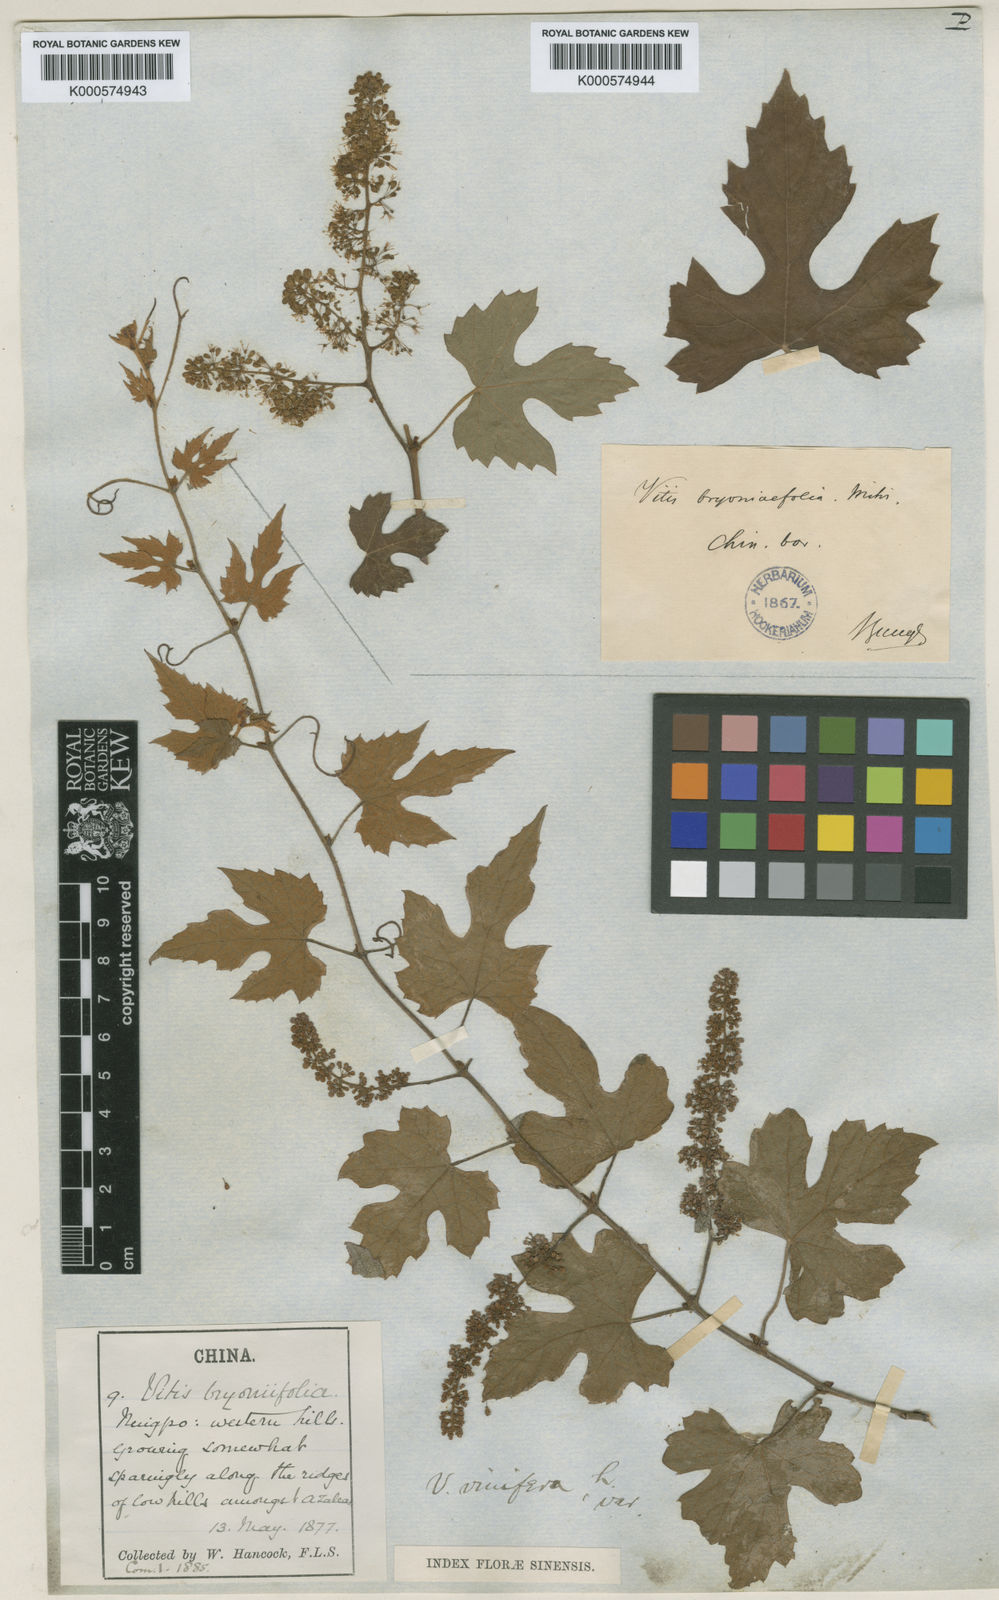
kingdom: Plantae
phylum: Tracheophyta
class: Magnoliopsida
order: Vitales
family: Vitaceae
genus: Vitis
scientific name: Vitis bryoniifolia
